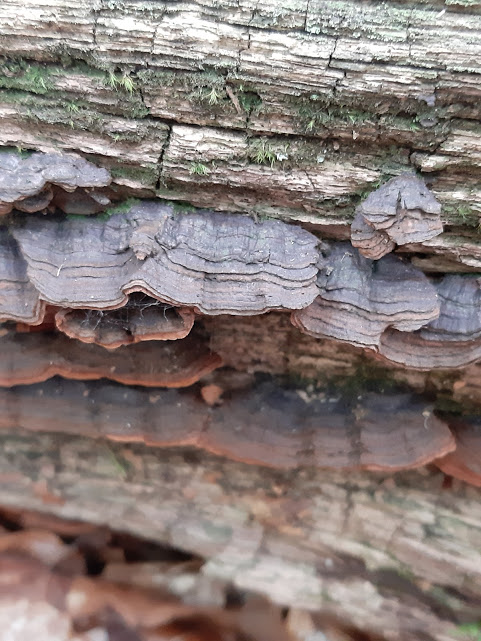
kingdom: Fungi
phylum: Basidiomycota
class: Agaricomycetes
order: Hymenochaetales
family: Hymenochaetaceae
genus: Hymenochaete
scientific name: Hymenochaete rubiginosa
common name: stiv ruslædersvamp
